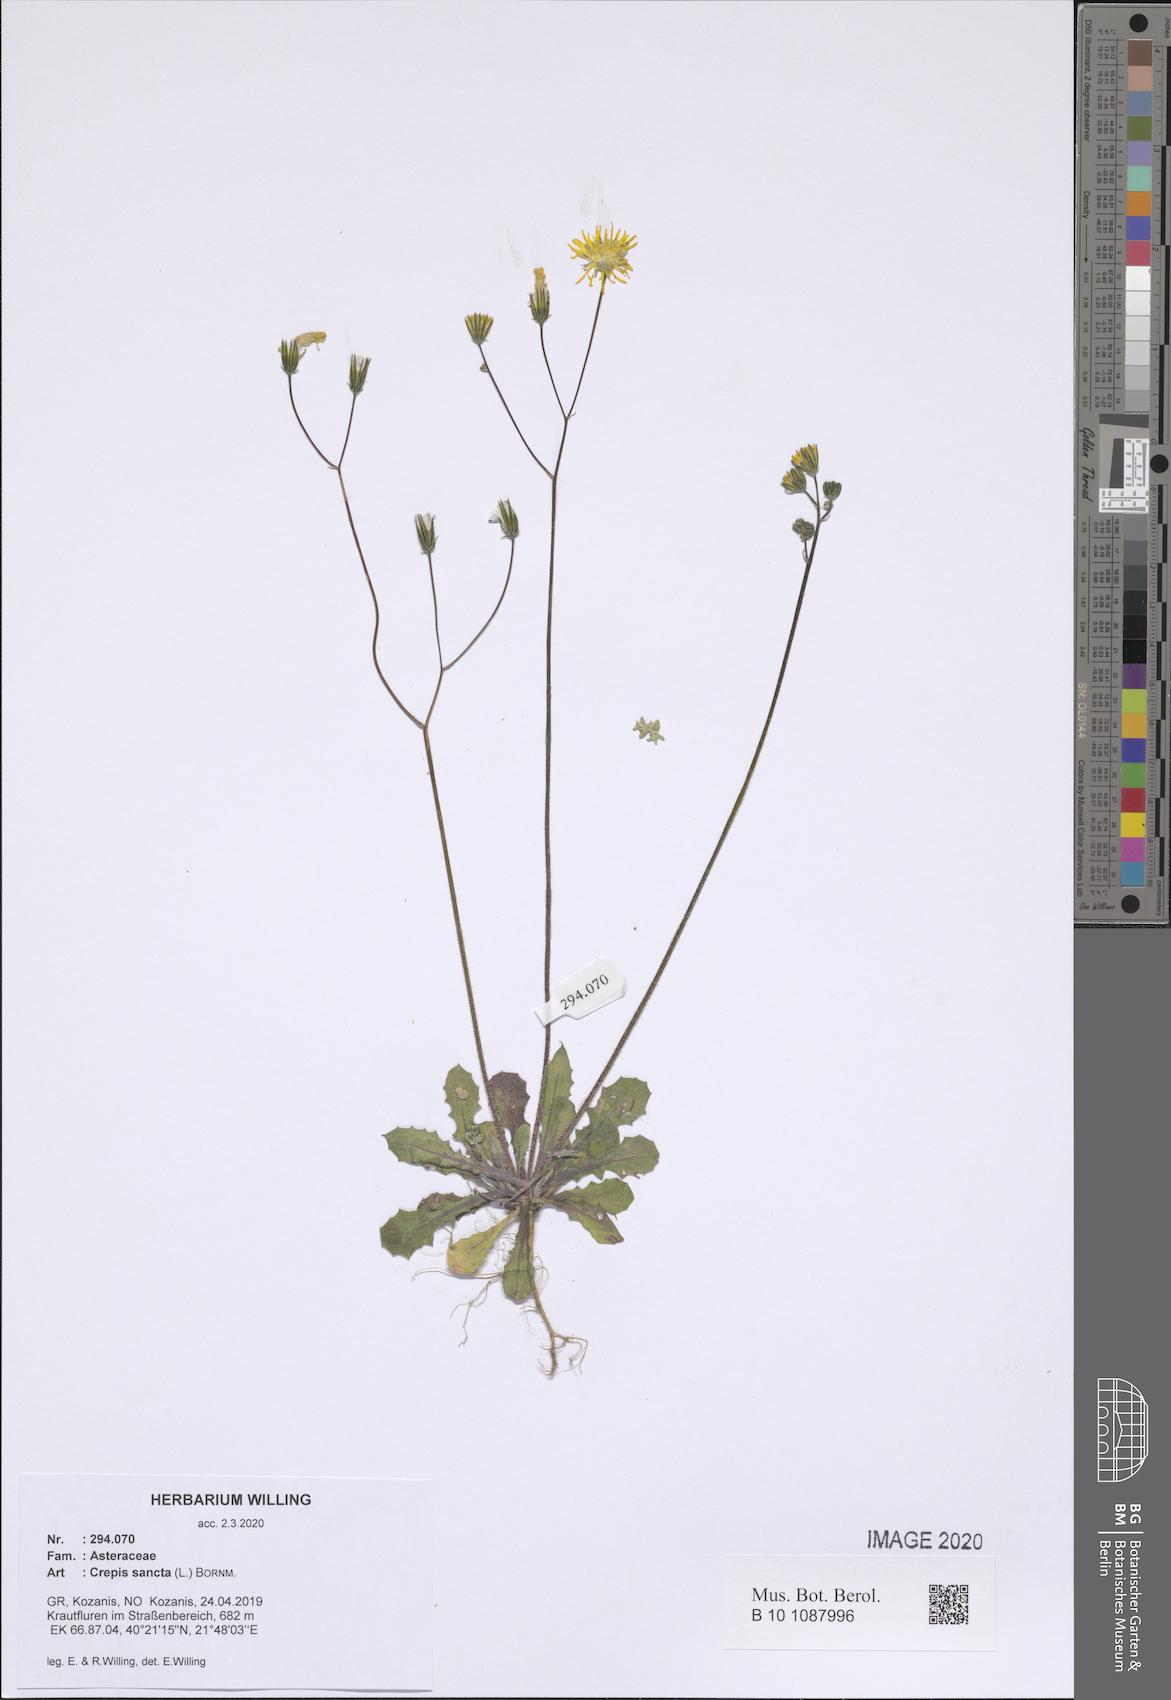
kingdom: Plantae
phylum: Tracheophyta
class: Magnoliopsida
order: Asterales
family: Asteraceae
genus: Crepis
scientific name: Crepis sancta
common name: Hawk's-beard
